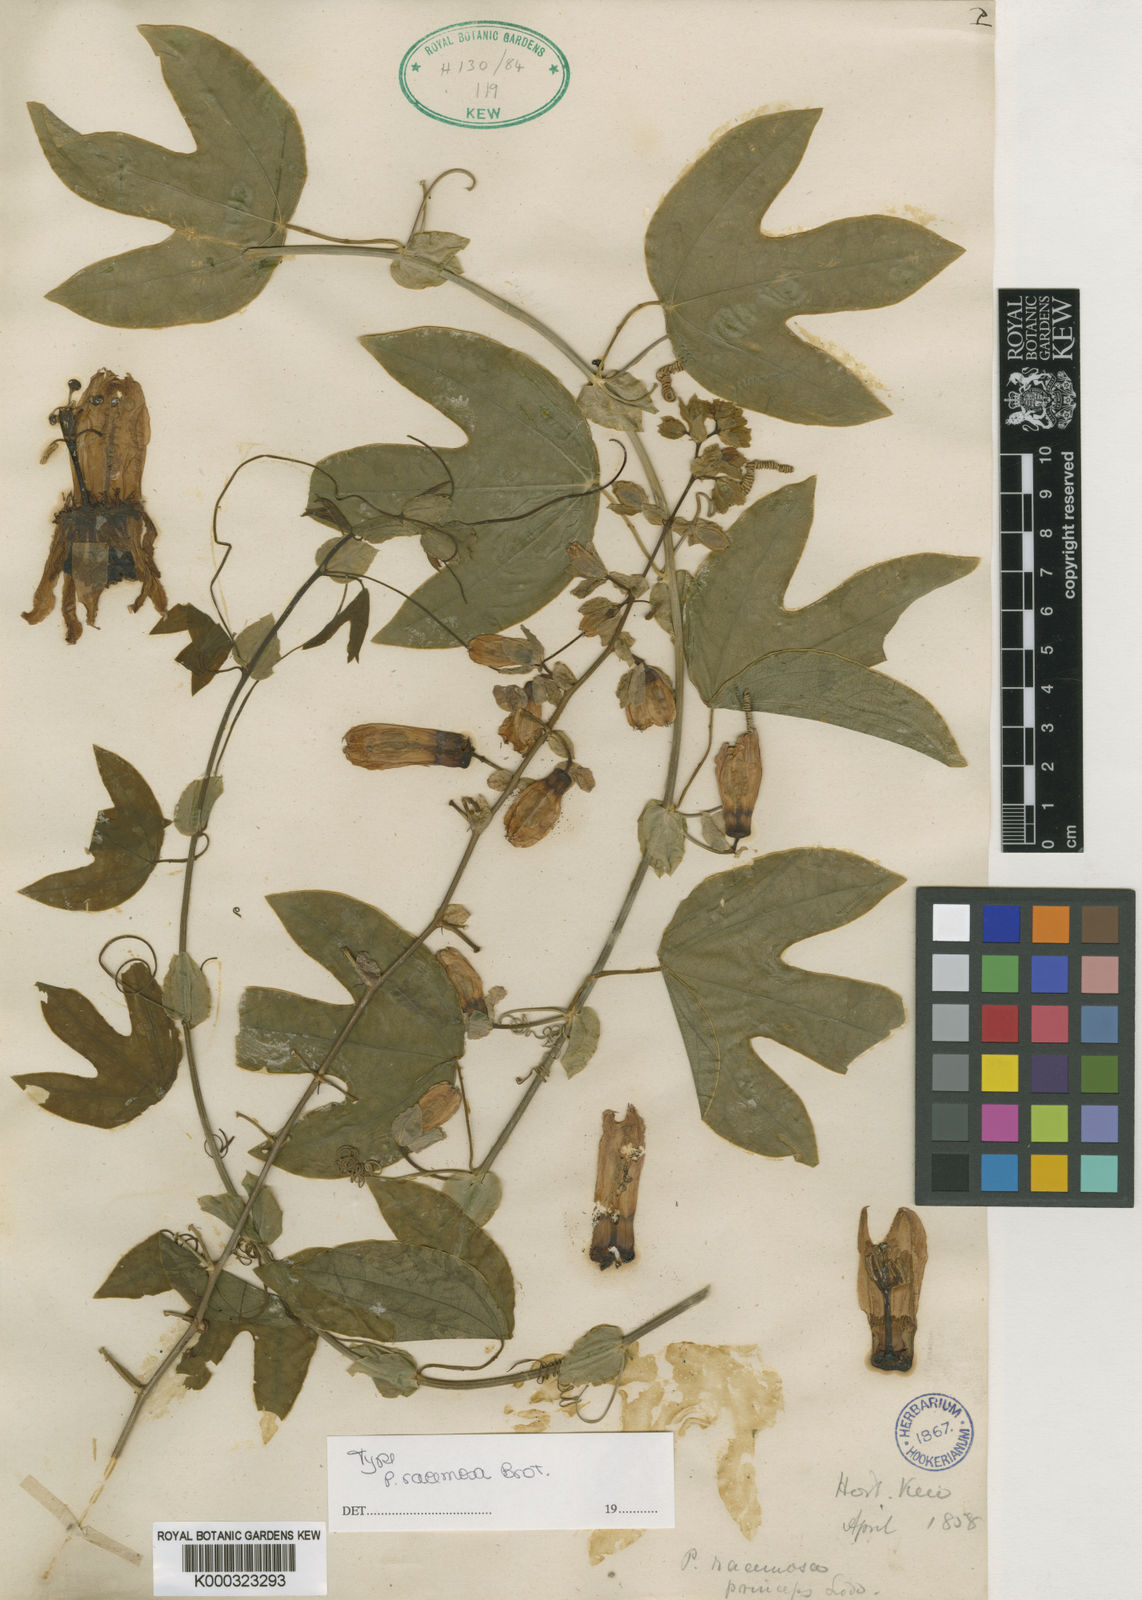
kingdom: Plantae
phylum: Tracheophyta
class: Magnoliopsida
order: Malpighiales
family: Passifloraceae
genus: Passiflora
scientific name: Passiflora racemosa
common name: Red passionflower
